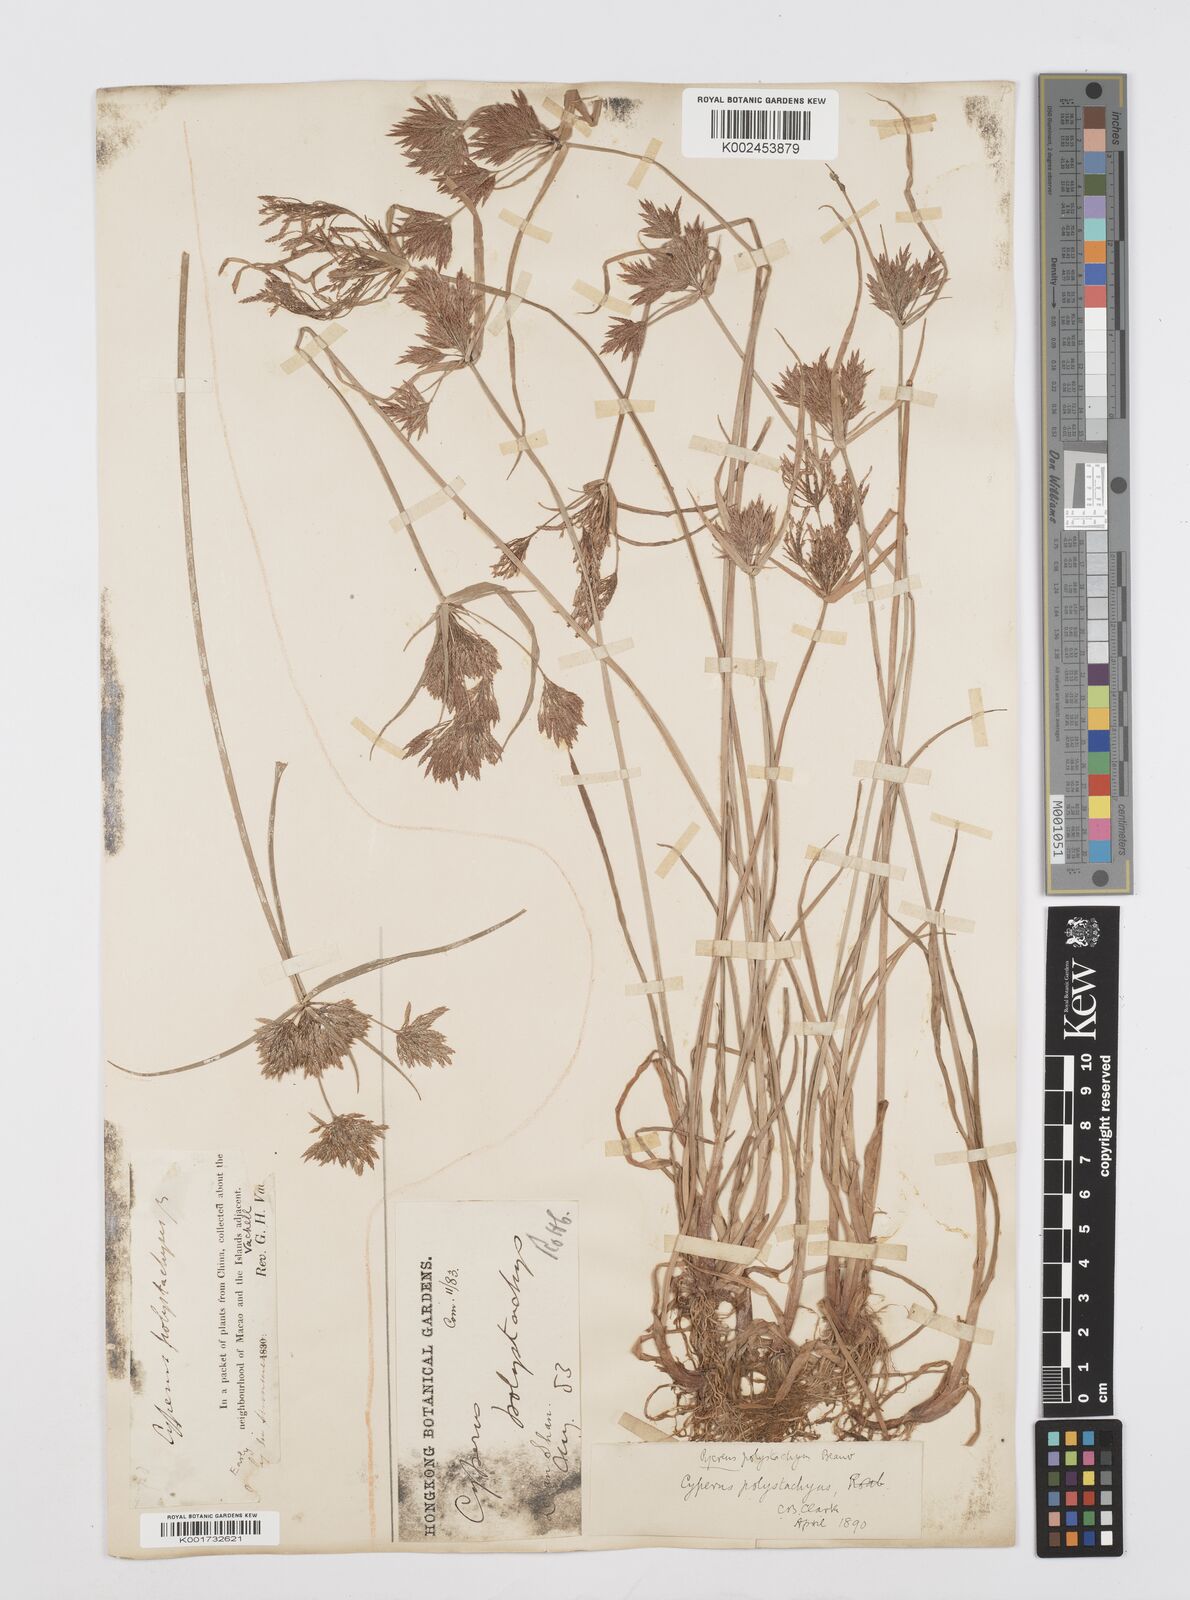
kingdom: Plantae
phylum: Tracheophyta
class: Liliopsida
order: Poales
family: Cyperaceae
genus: Cyperus
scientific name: Cyperus polystachyos
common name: Bunchy flat sedge
